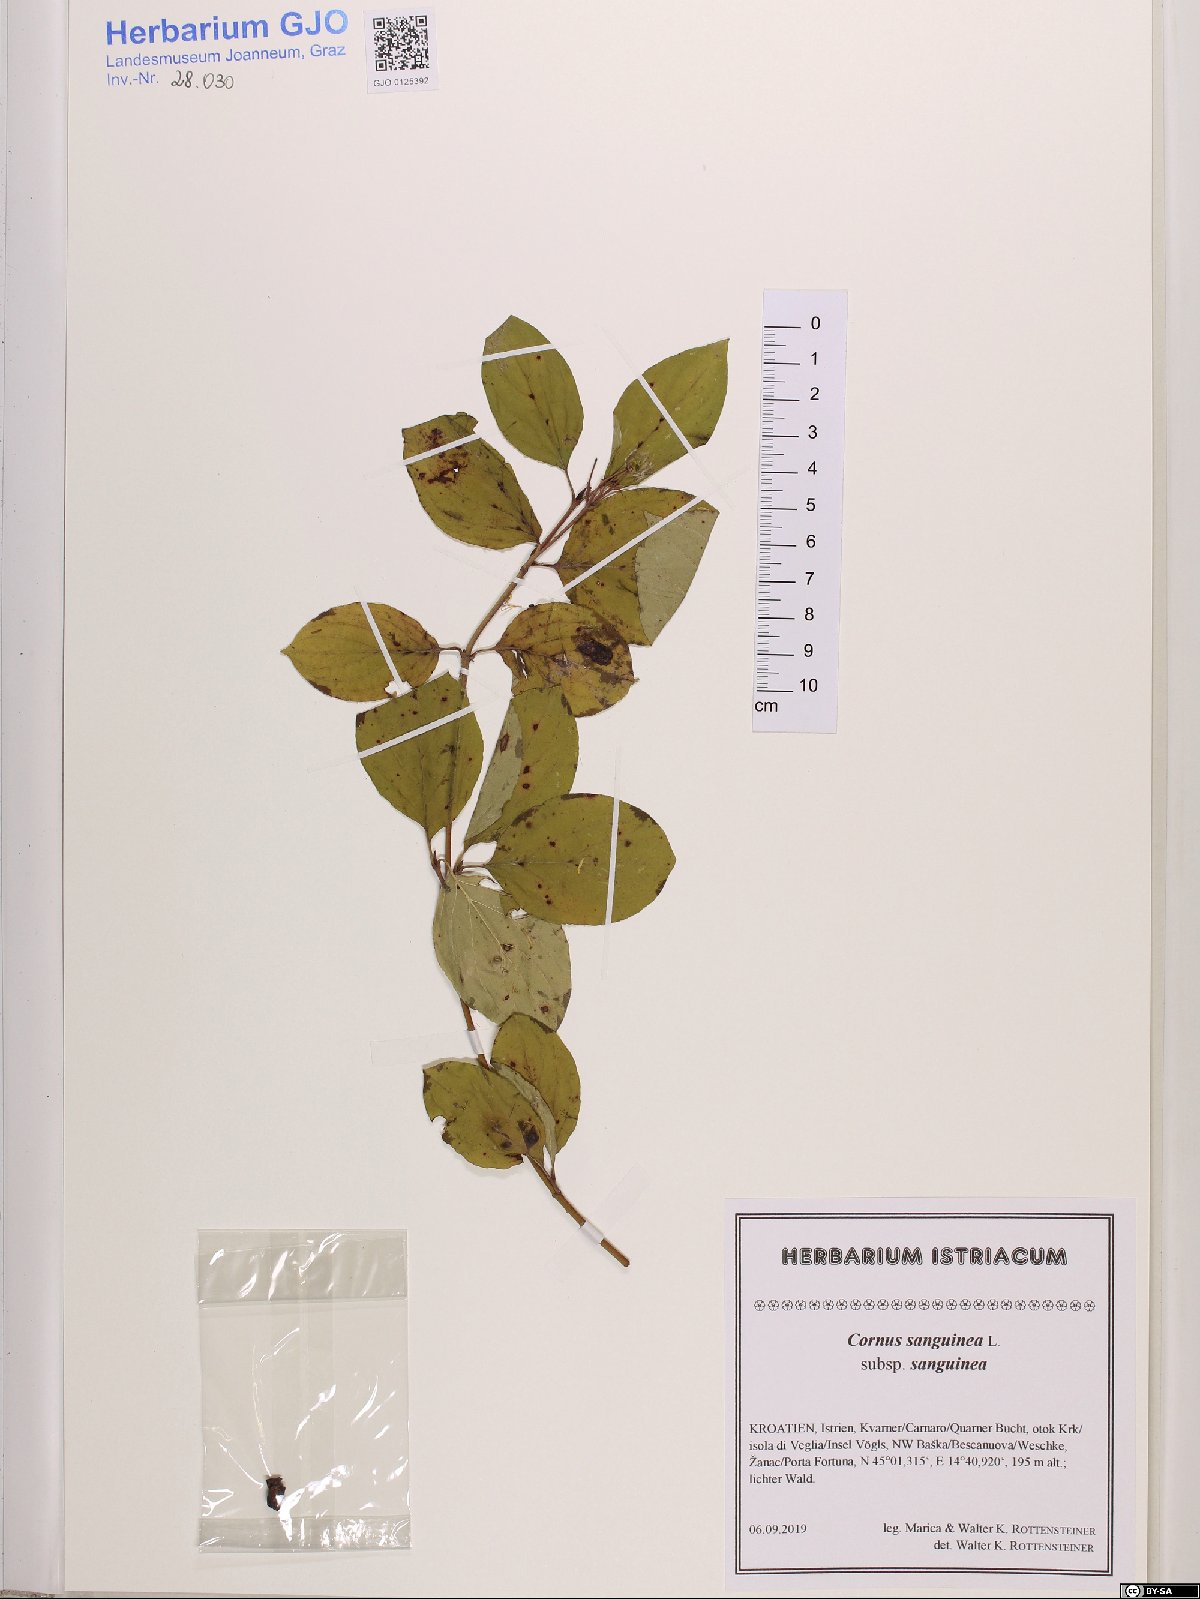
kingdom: Plantae
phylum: Tracheophyta
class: Magnoliopsida
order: Cornales
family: Cornaceae
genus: Cornus
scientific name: Cornus sanguinea
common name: Dogwood
